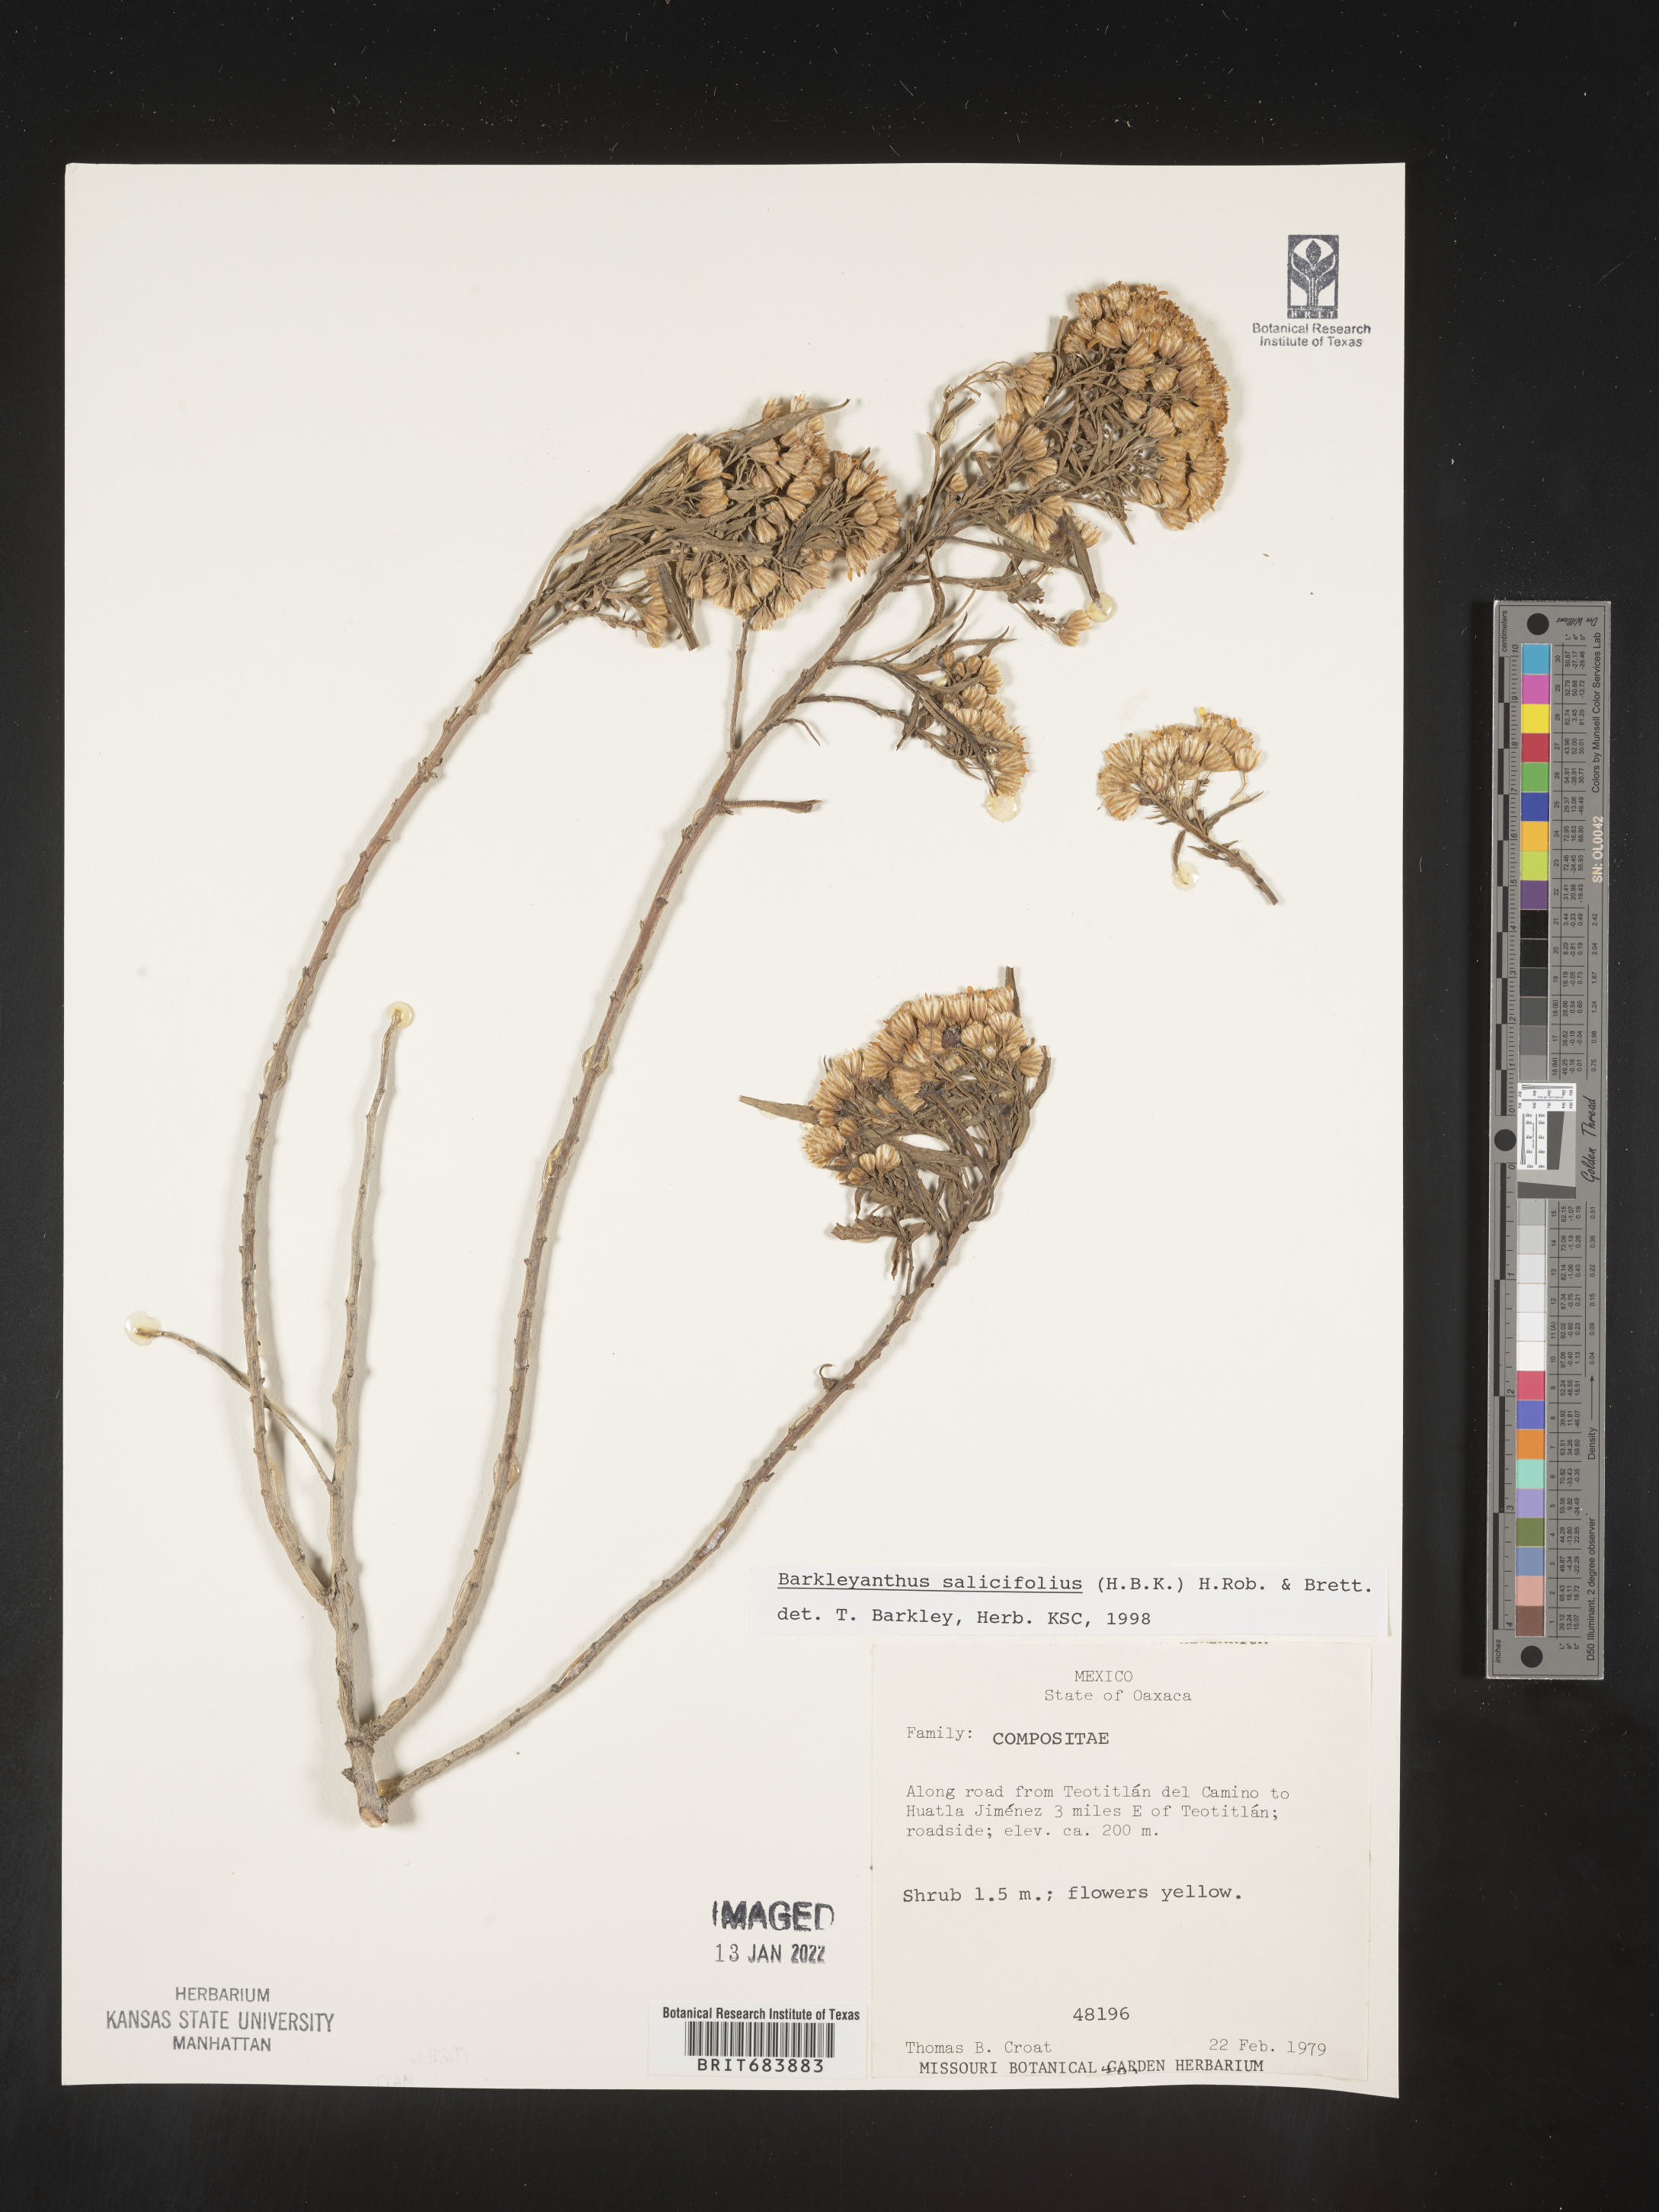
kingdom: Plantae
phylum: Tracheophyta
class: Magnoliopsida
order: Asterales
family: Asteraceae
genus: Barkleyanthus
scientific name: Barkleyanthus
